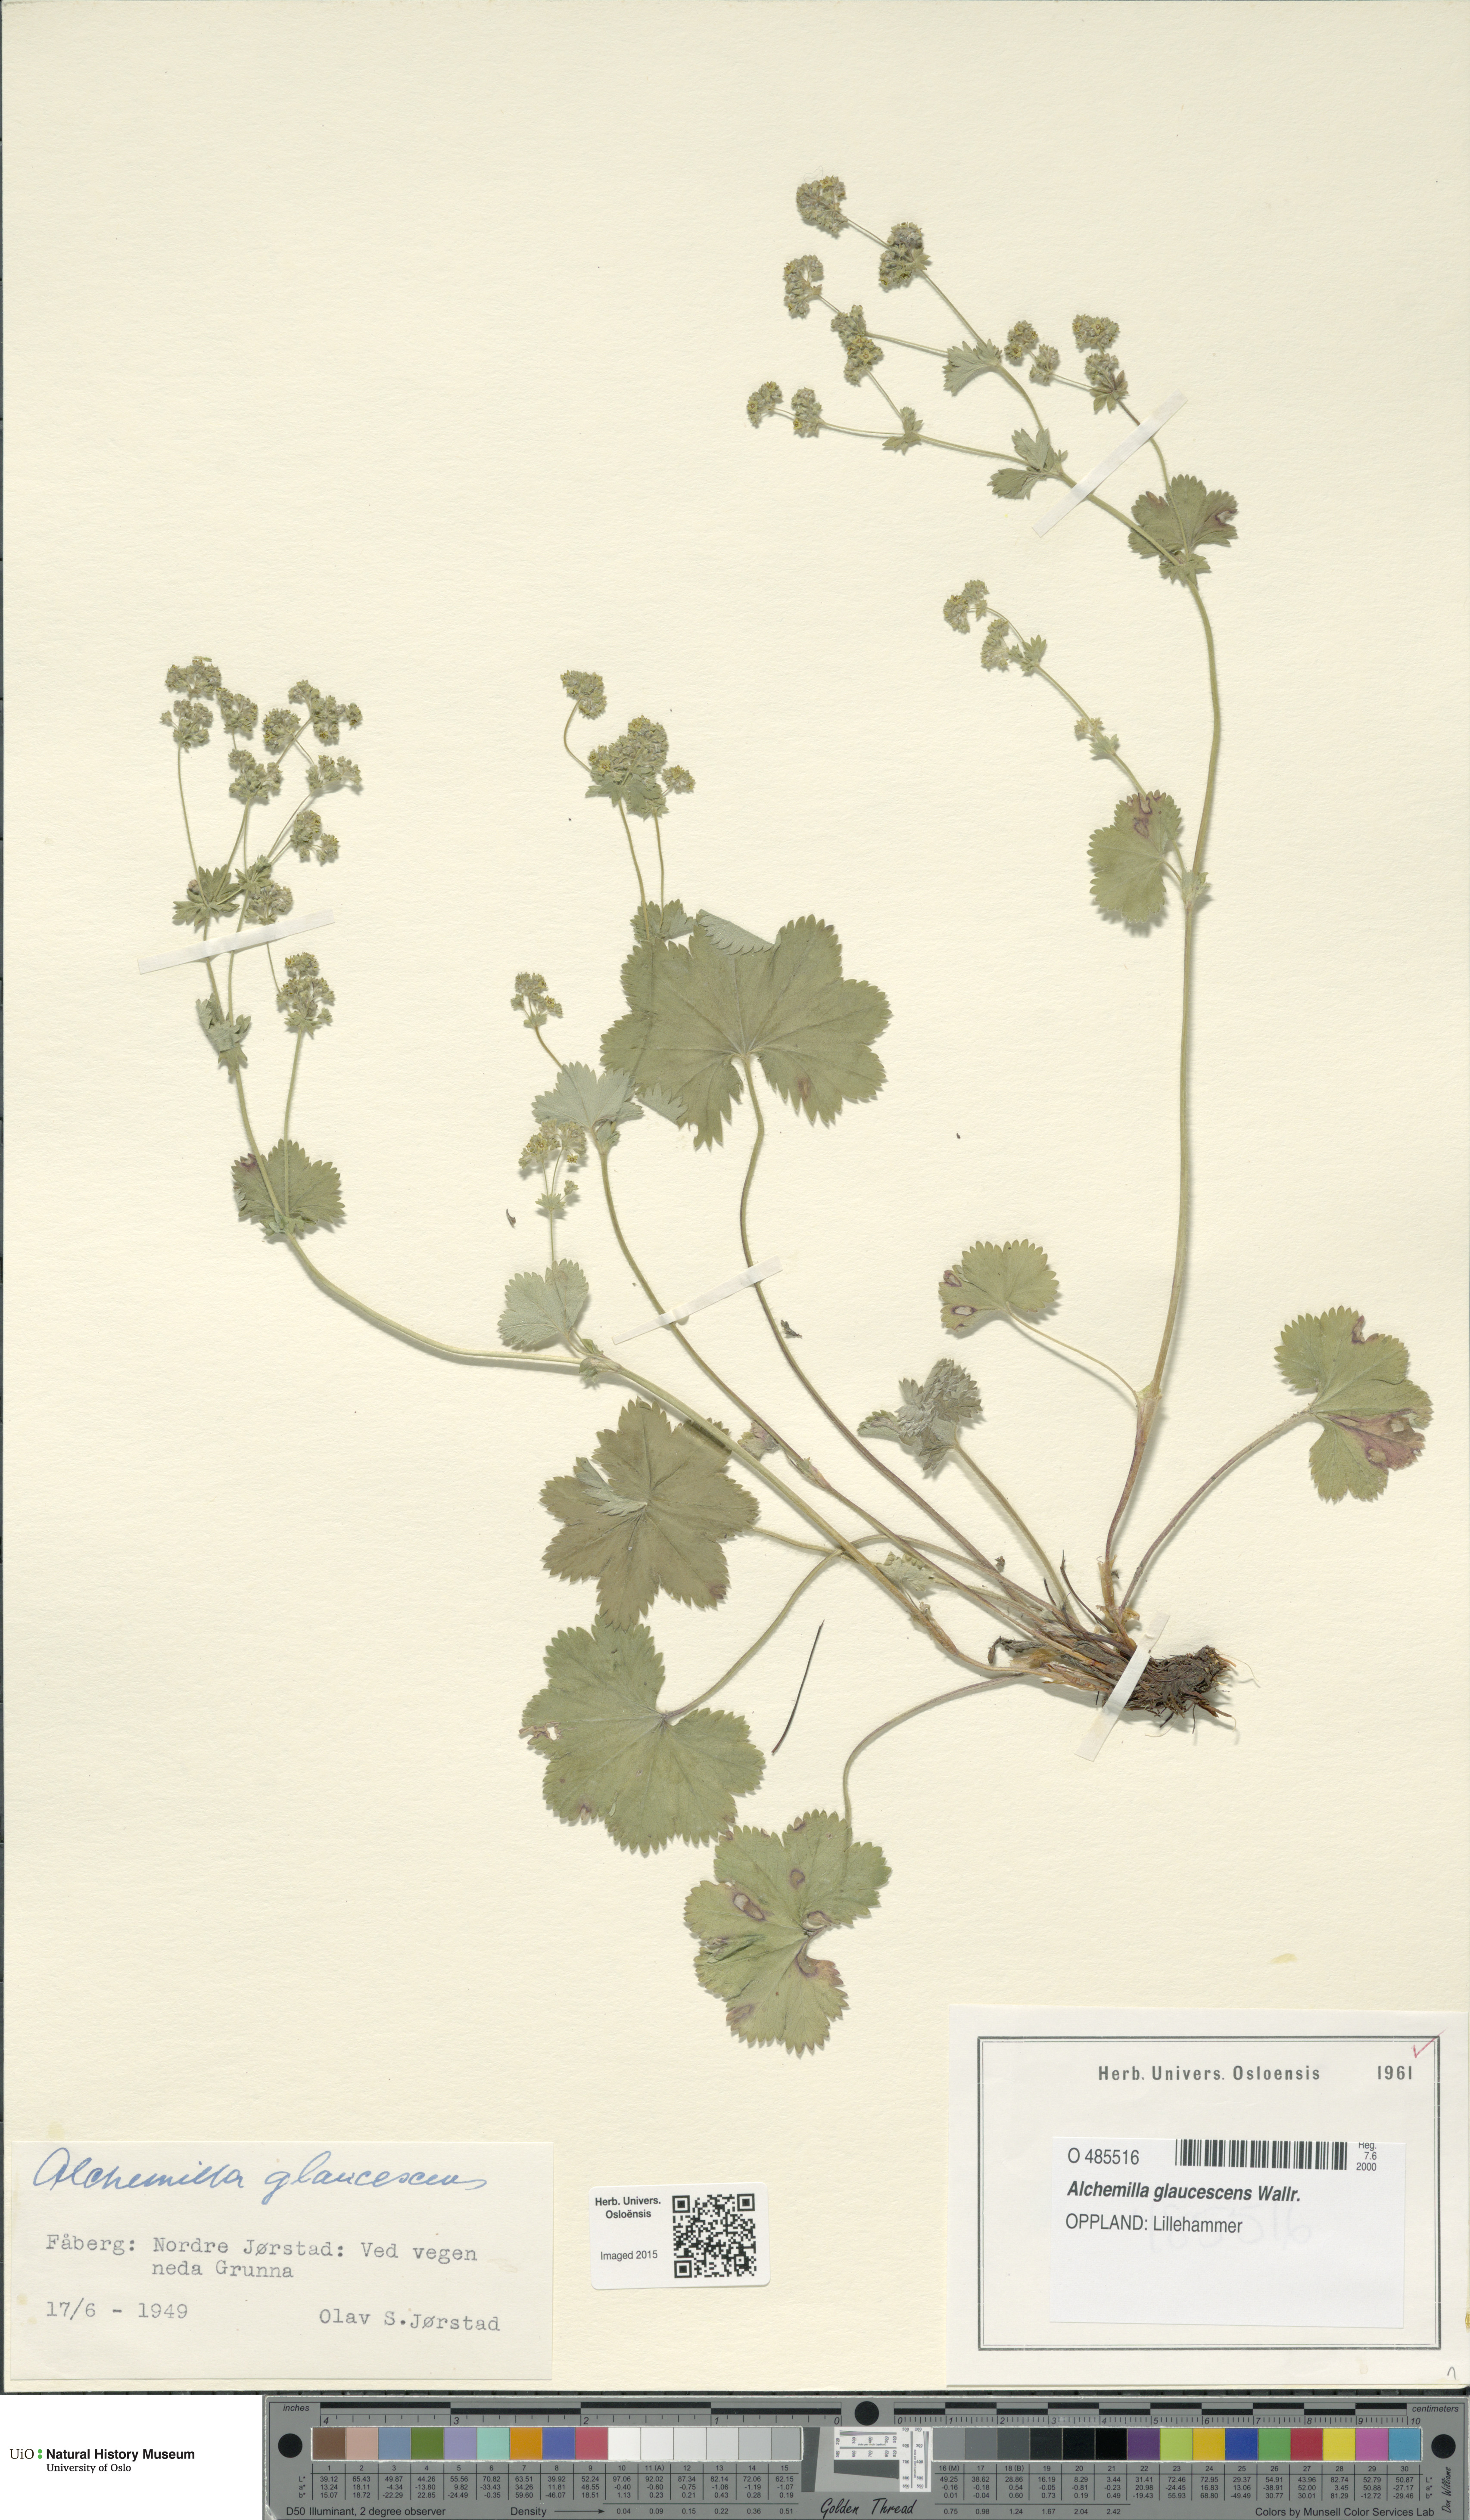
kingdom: Plantae
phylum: Tracheophyta
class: Magnoliopsida
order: Rosales
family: Rosaceae
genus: Alchemilla
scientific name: Alchemilla glaucescens
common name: Silky lady's mantle
